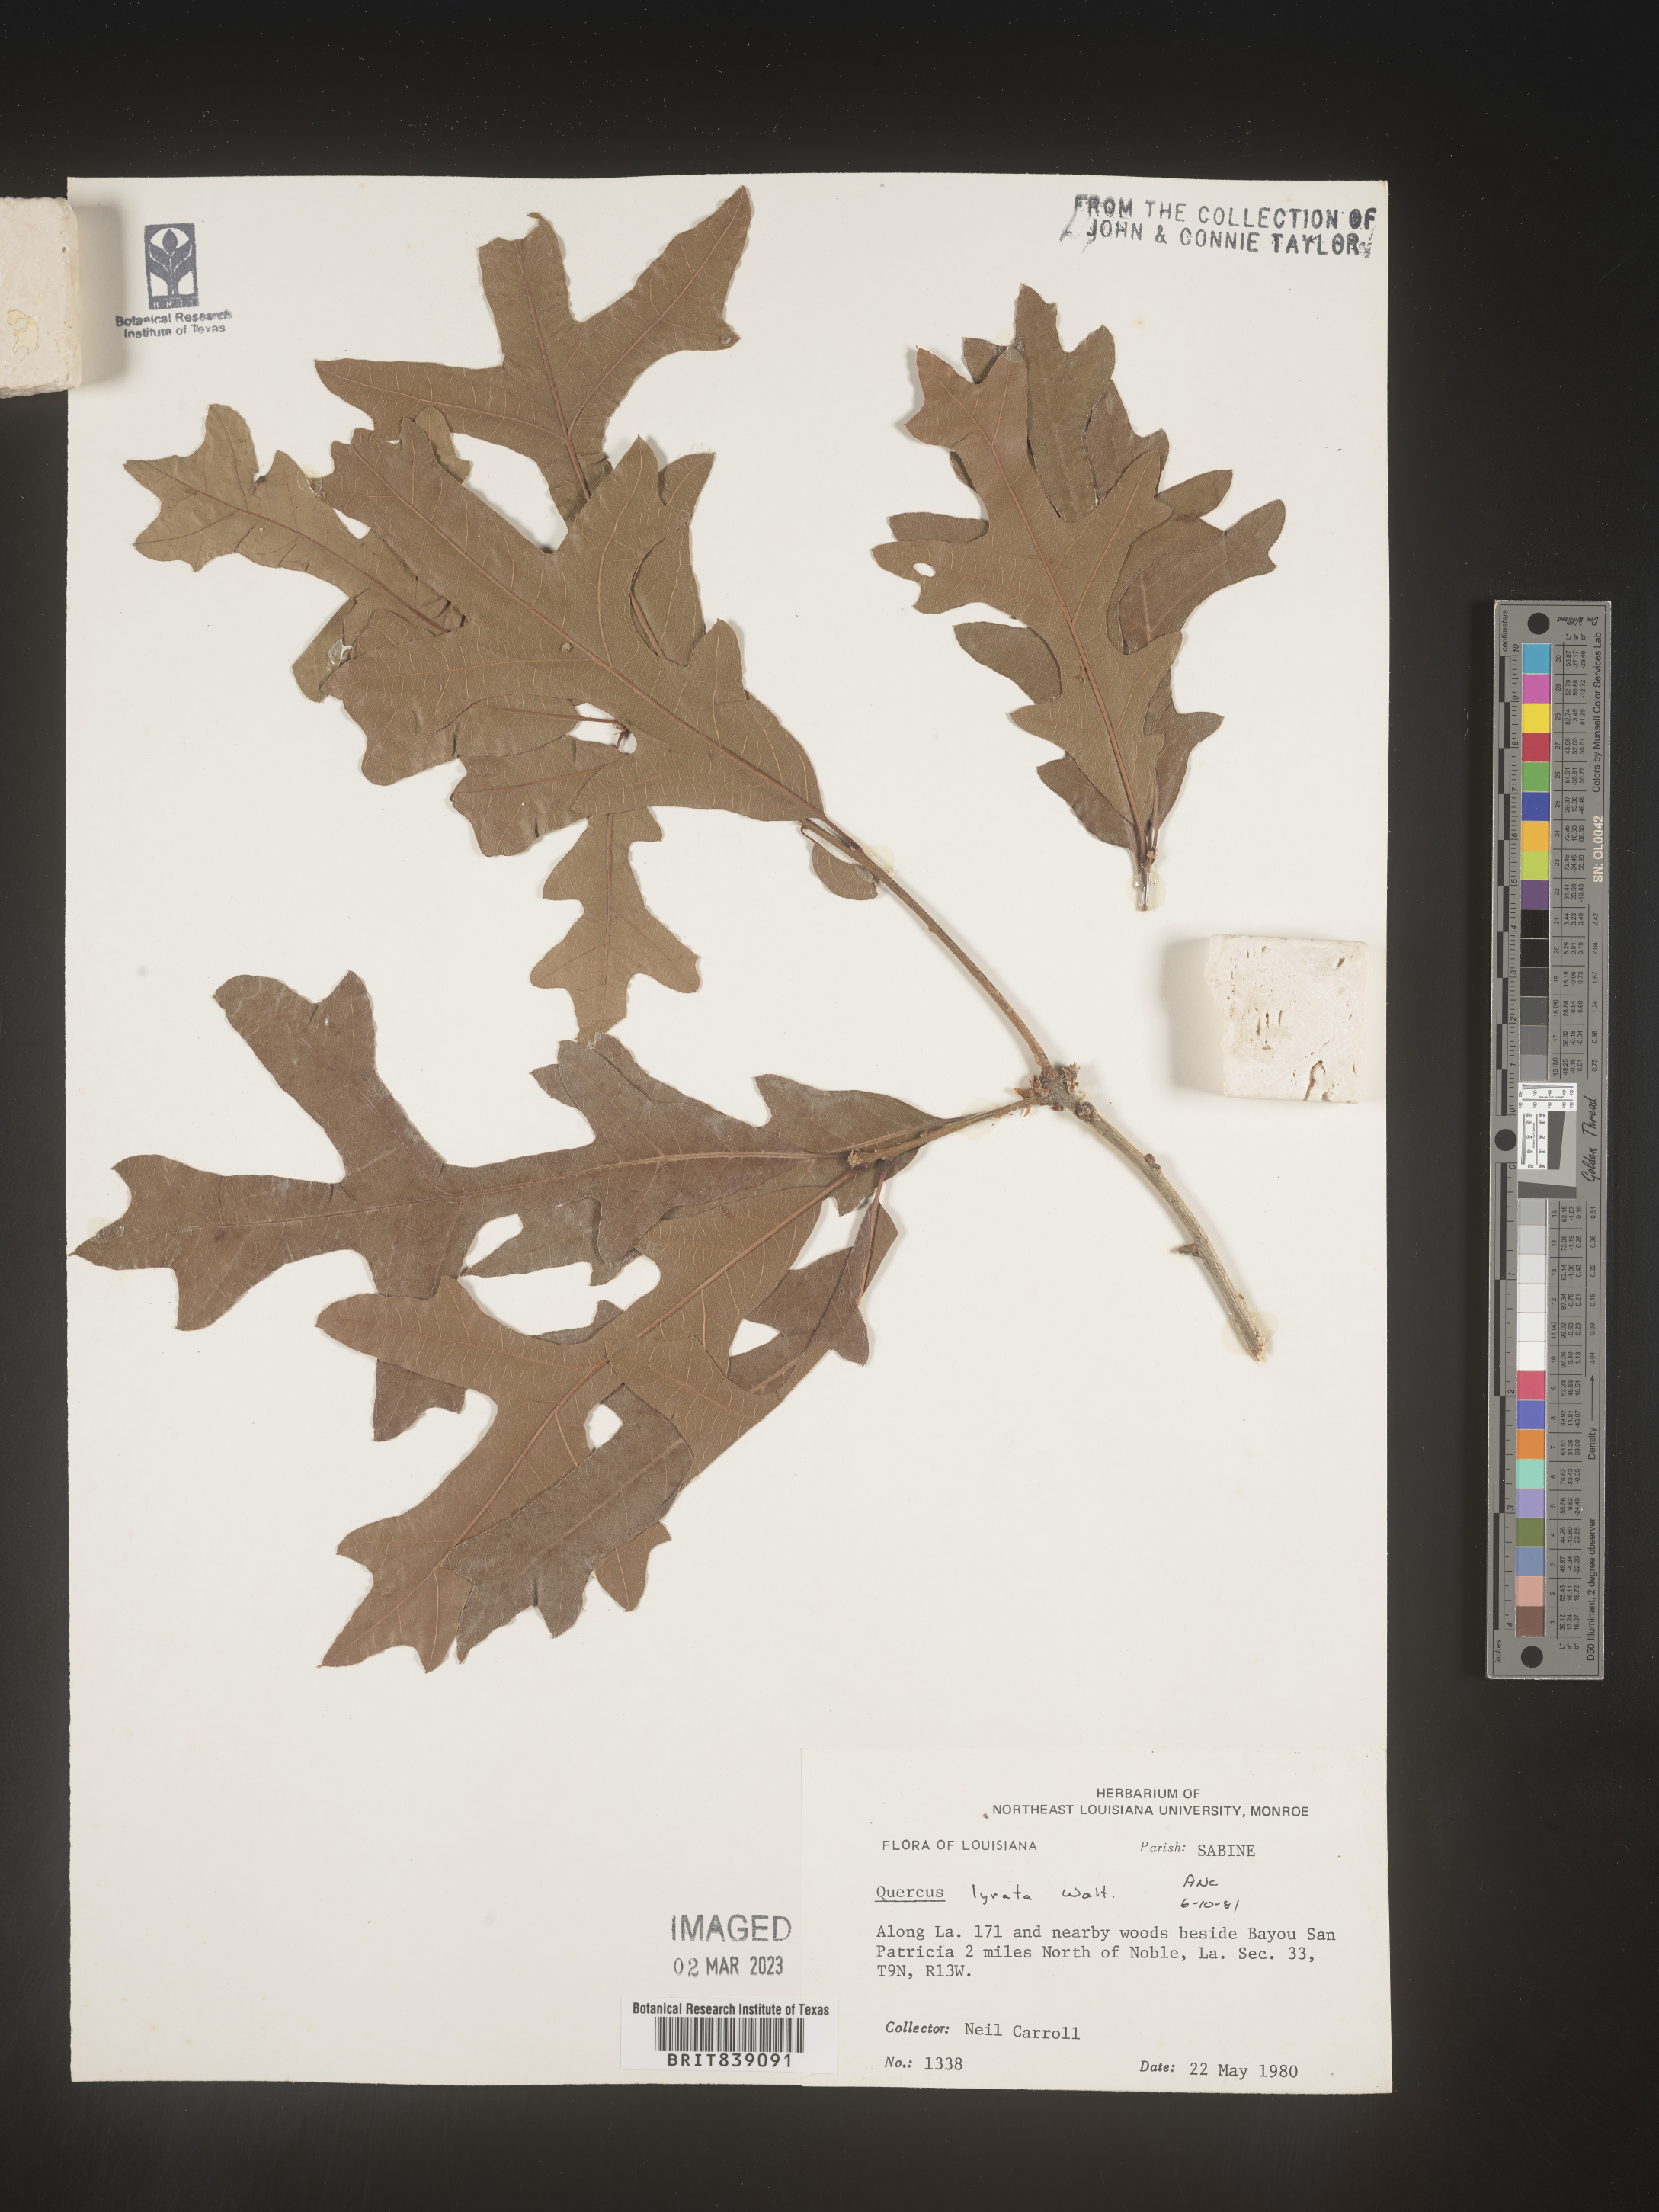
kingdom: Plantae
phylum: Tracheophyta
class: Magnoliopsida
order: Fagales
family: Fagaceae
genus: Quercus
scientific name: Quercus lyrata
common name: Overcup oak
